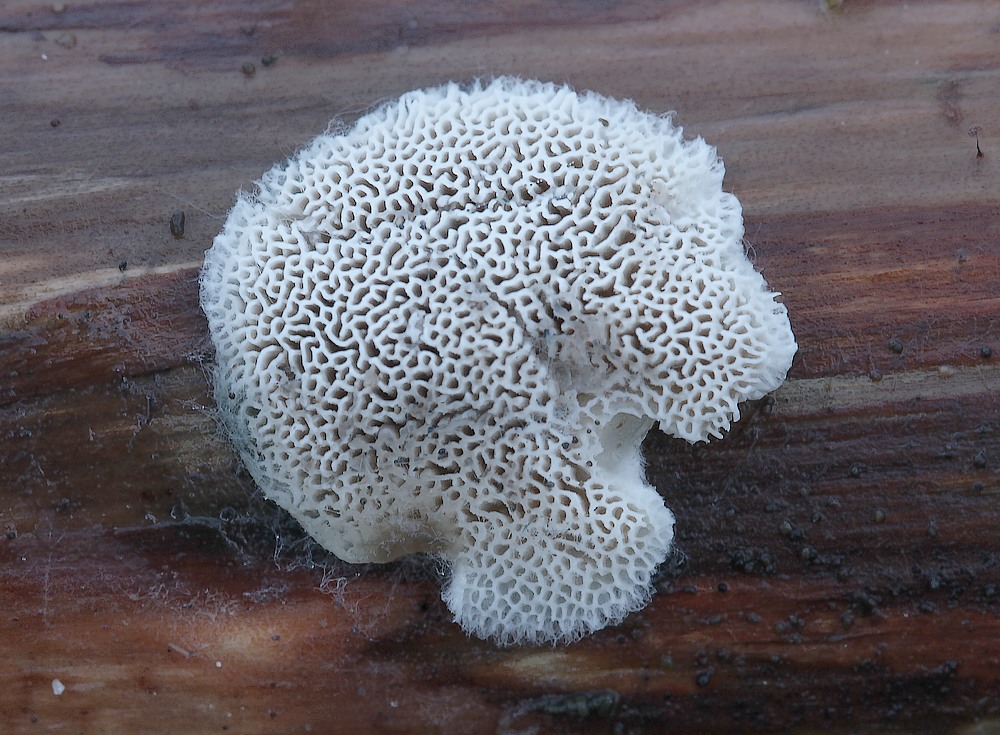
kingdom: Fungi
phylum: Basidiomycota
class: Agaricomycetes
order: Polyporales
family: Dacryobolaceae
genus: Postia
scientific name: Postia
